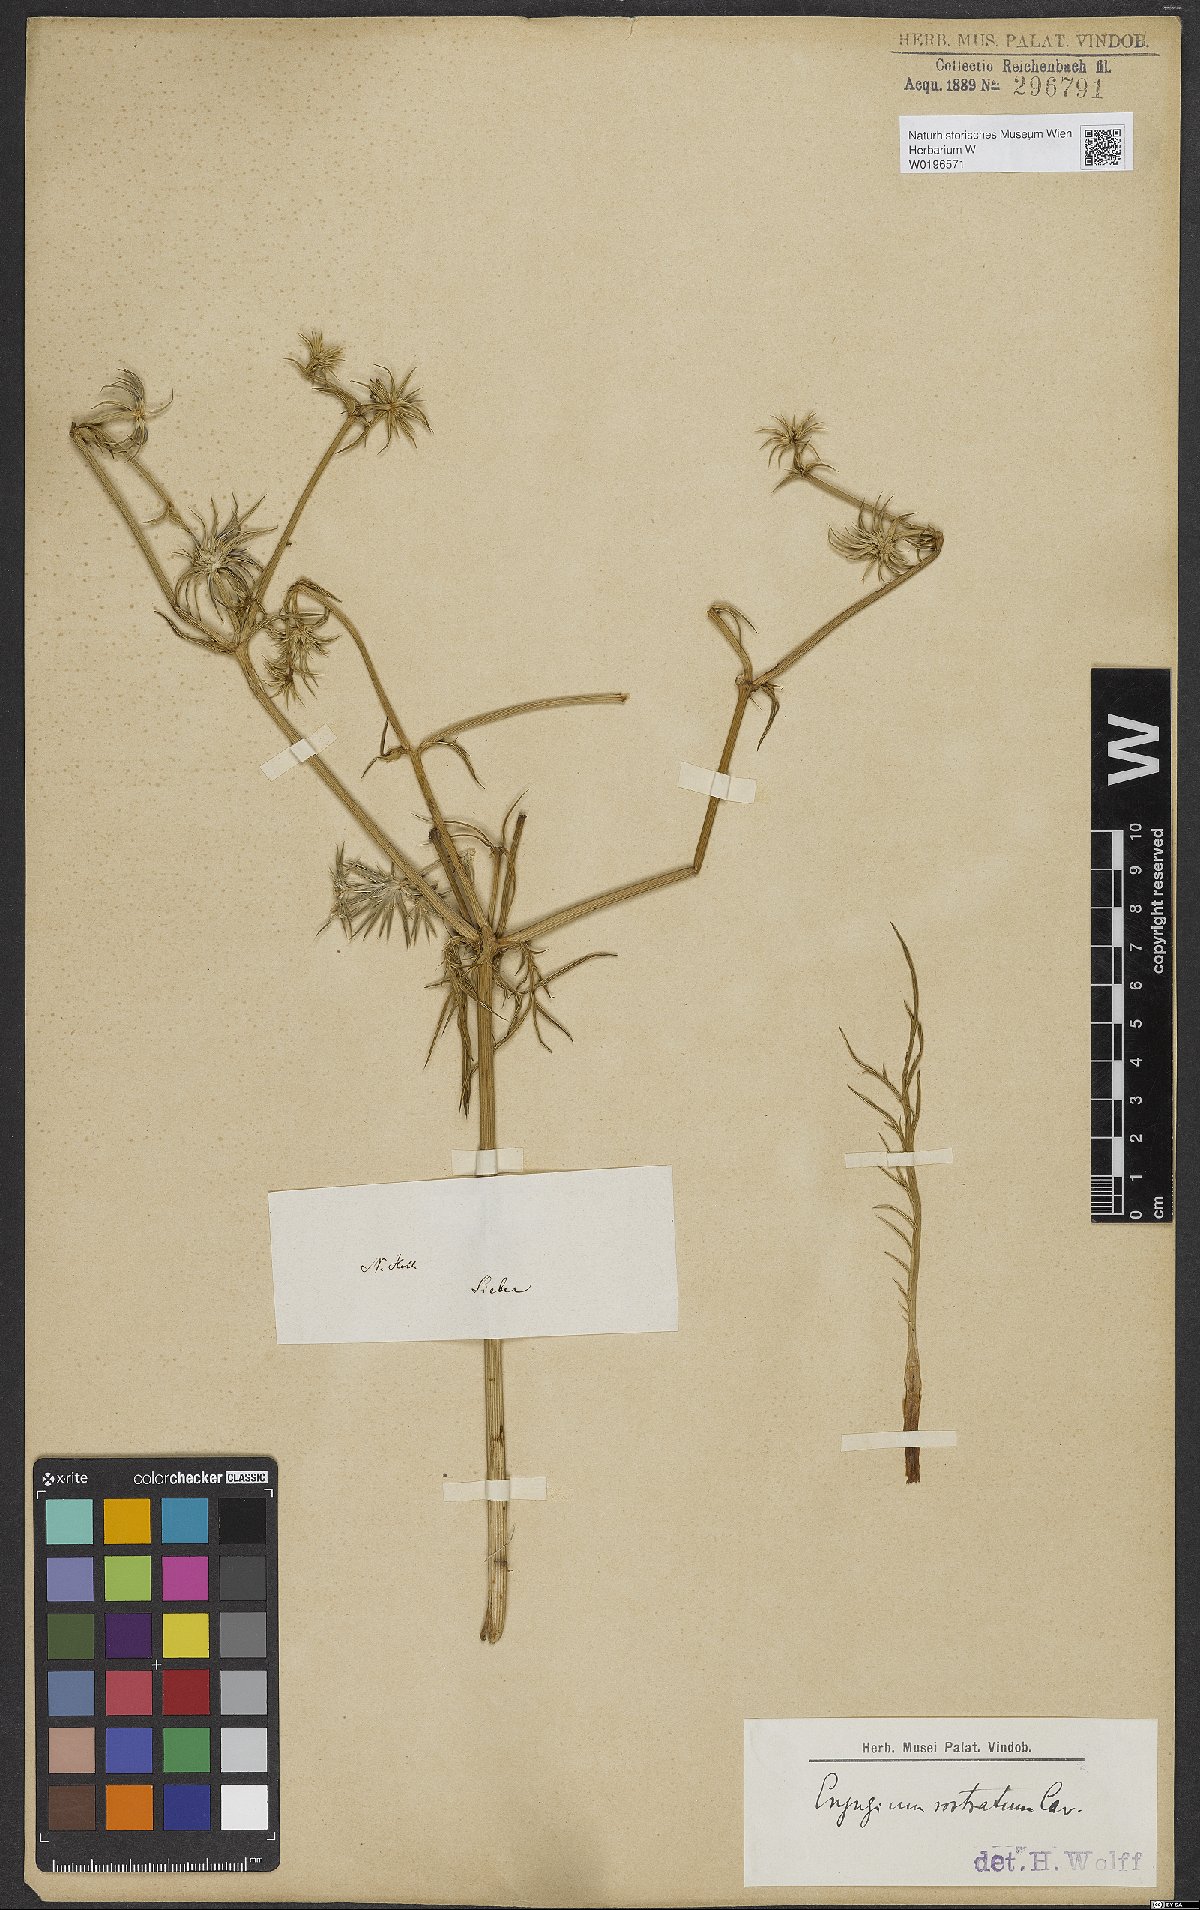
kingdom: Plantae
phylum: Tracheophyta
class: Magnoliopsida
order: Apiales
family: Apiaceae
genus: Eryngium
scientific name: Eryngium rostratum
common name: Blue eryngo
